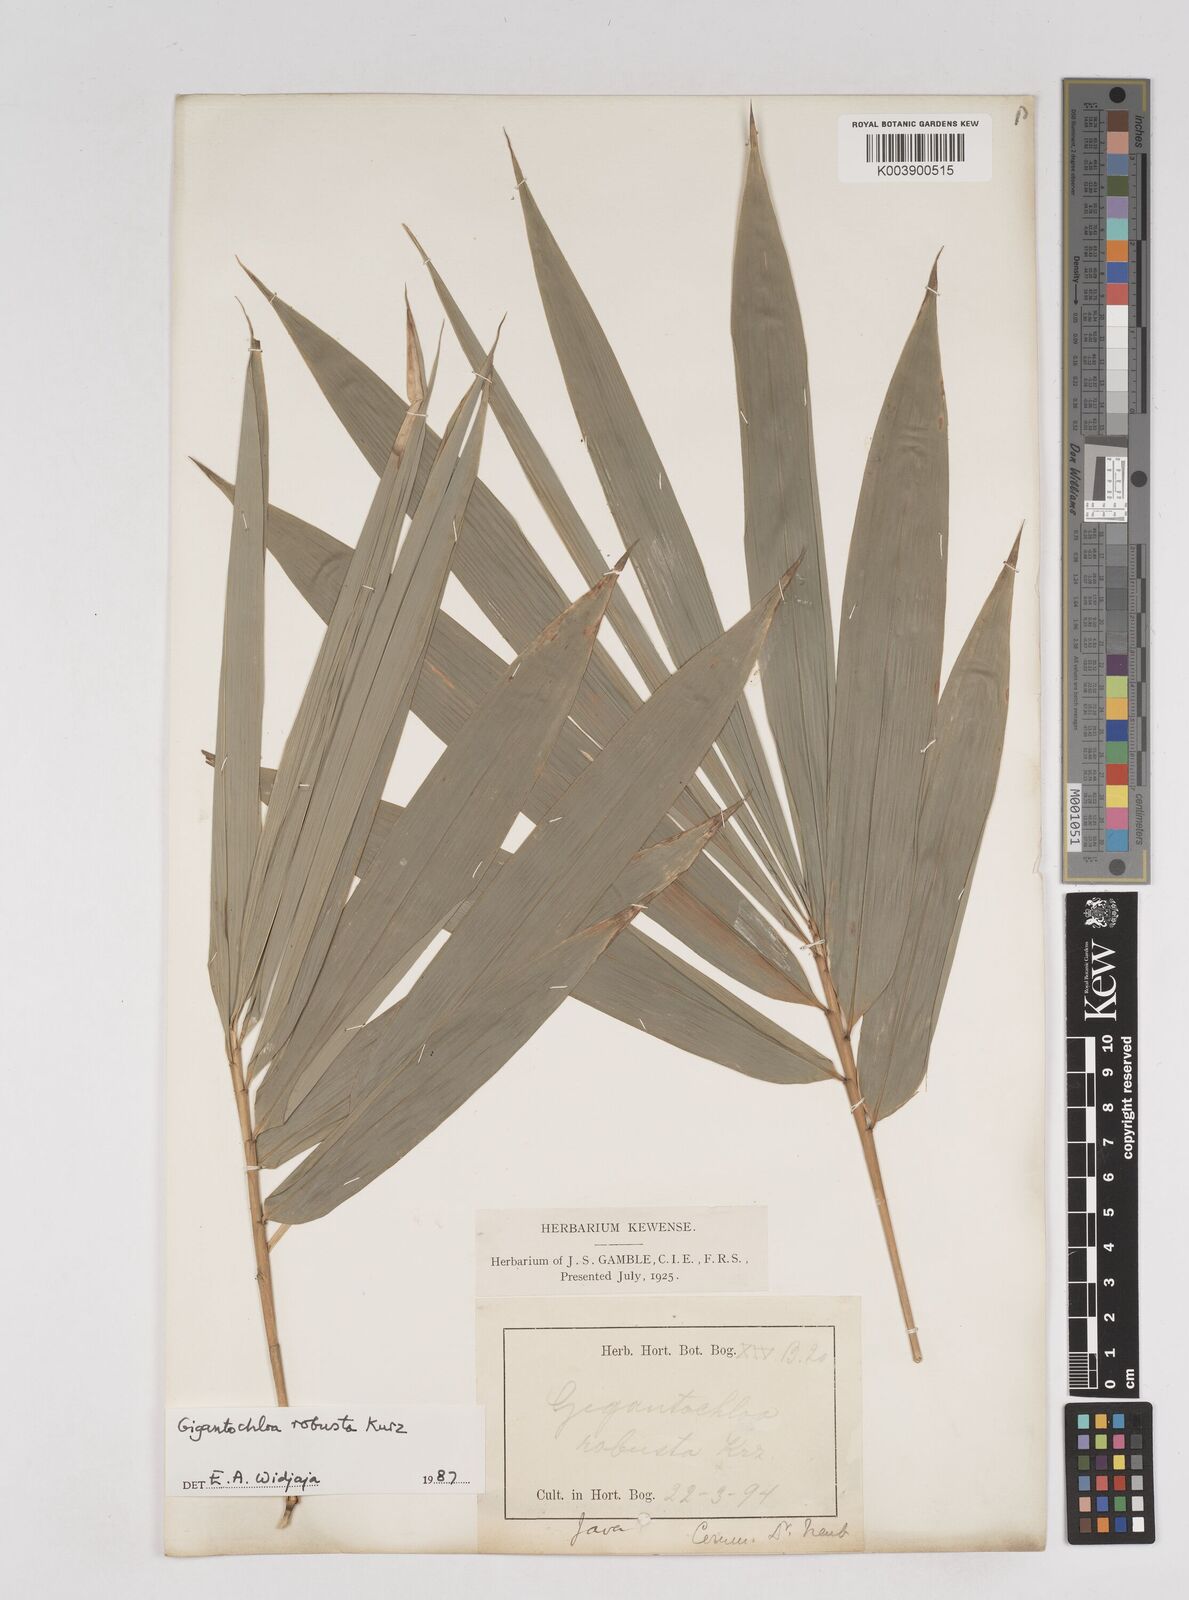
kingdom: Plantae
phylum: Tracheophyta
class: Liliopsida
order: Poales
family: Poaceae
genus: Gigantochloa
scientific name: Gigantochloa robusta
